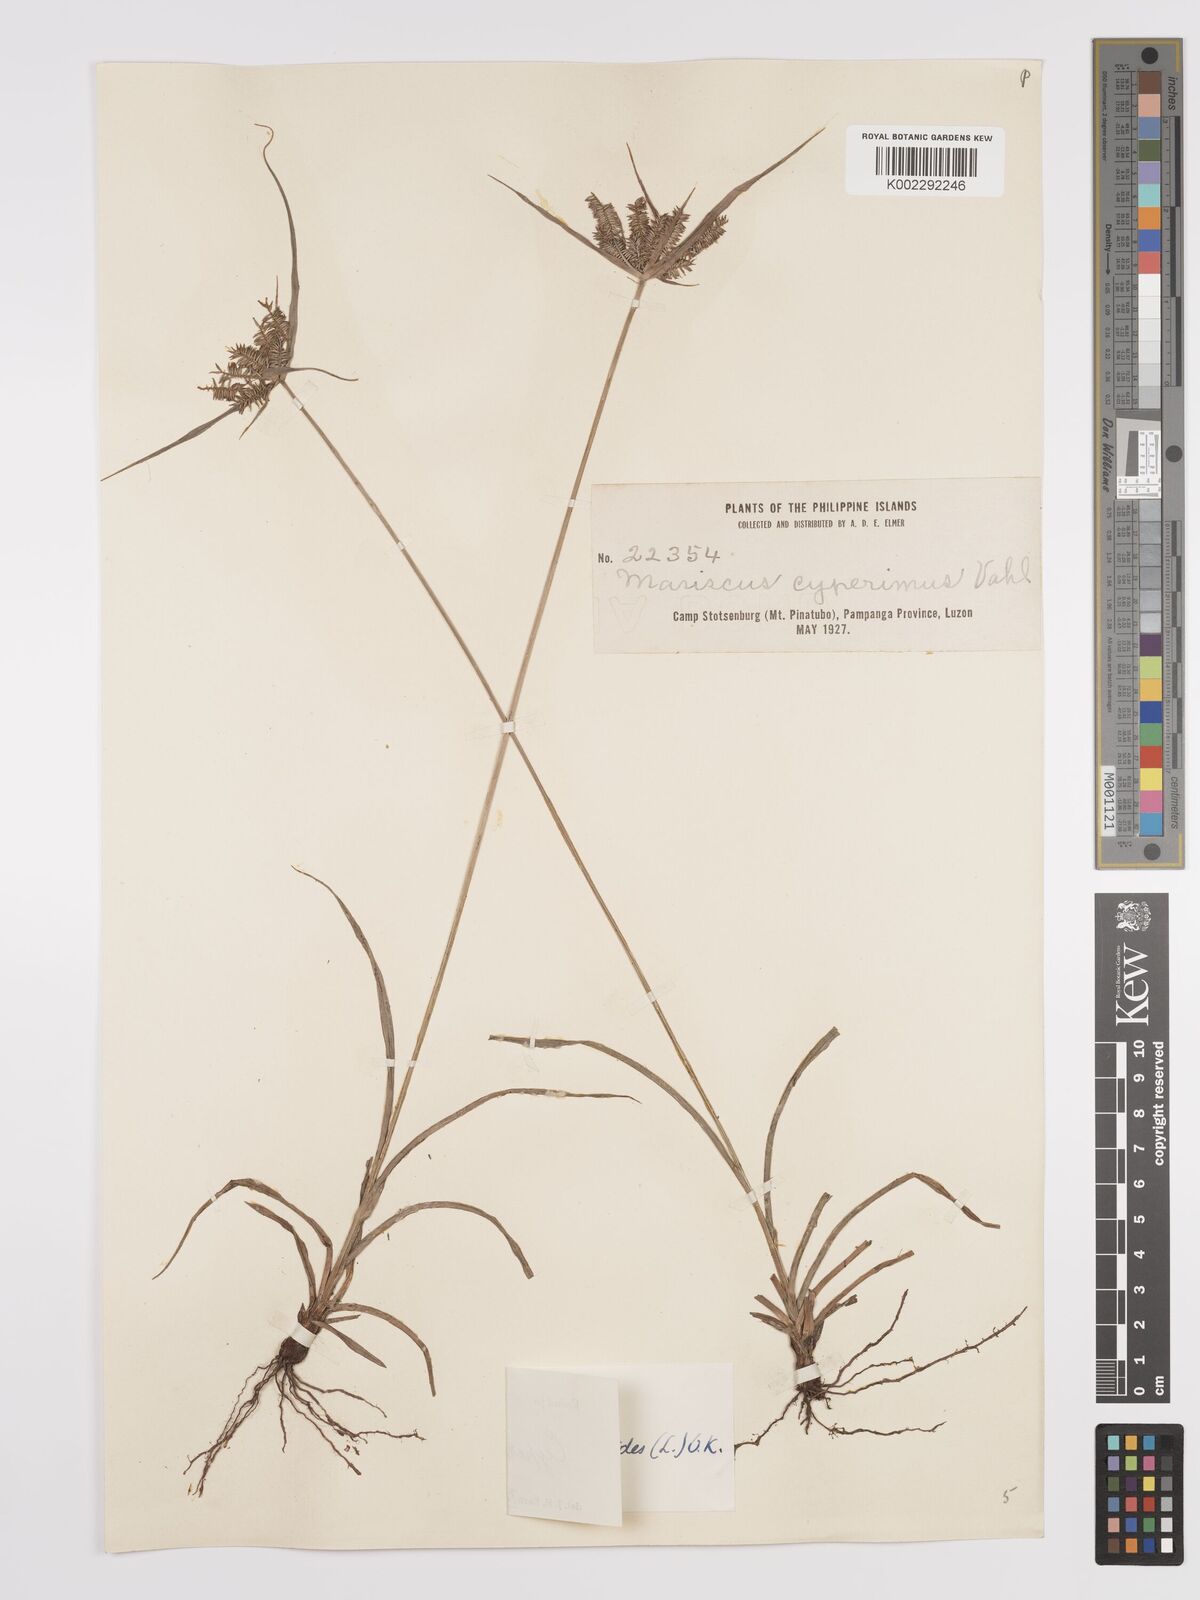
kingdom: Plantae
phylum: Tracheophyta
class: Liliopsida
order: Poales
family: Cyperaceae
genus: Cyperus
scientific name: Cyperus cyperoides
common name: Pacific island flat sedge
